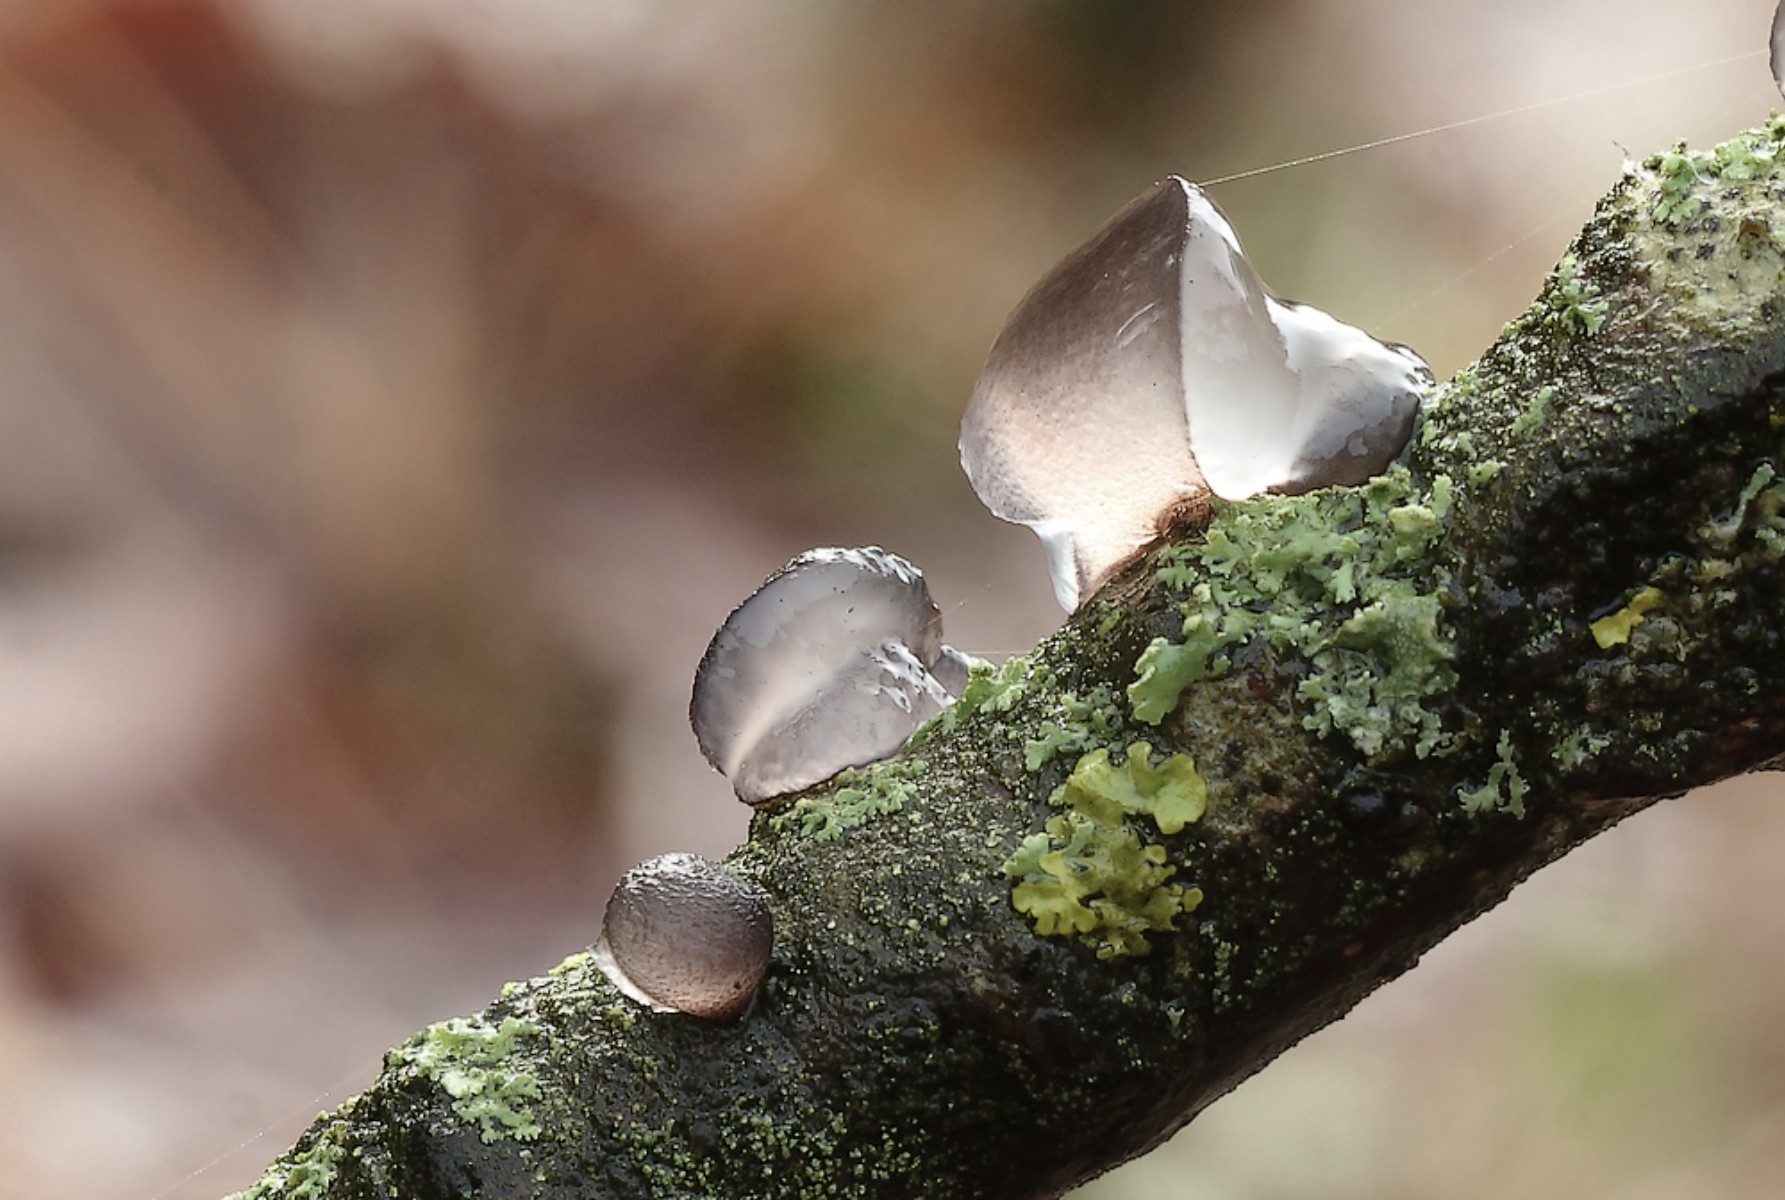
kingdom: Fungi
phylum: Basidiomycota
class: Agaricomycetes
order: Auriculariales
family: Auriculariaceae
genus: Exidia
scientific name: Exidia recisa
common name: pile-bævretop
